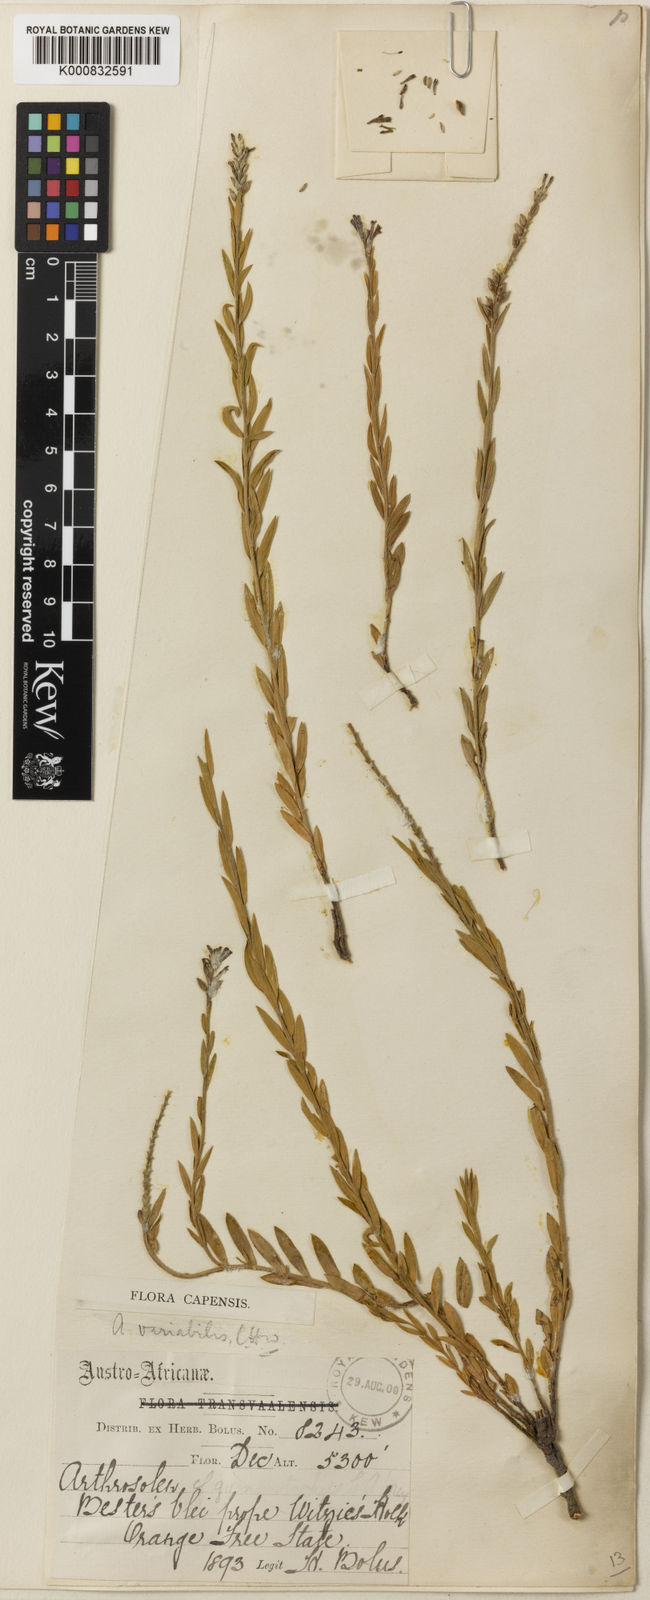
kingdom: Plantae
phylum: Tracheophyta
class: Magnoliopsida
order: Malvales
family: Thymelaeaceae
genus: Gnidia
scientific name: Gnidia variabilis
